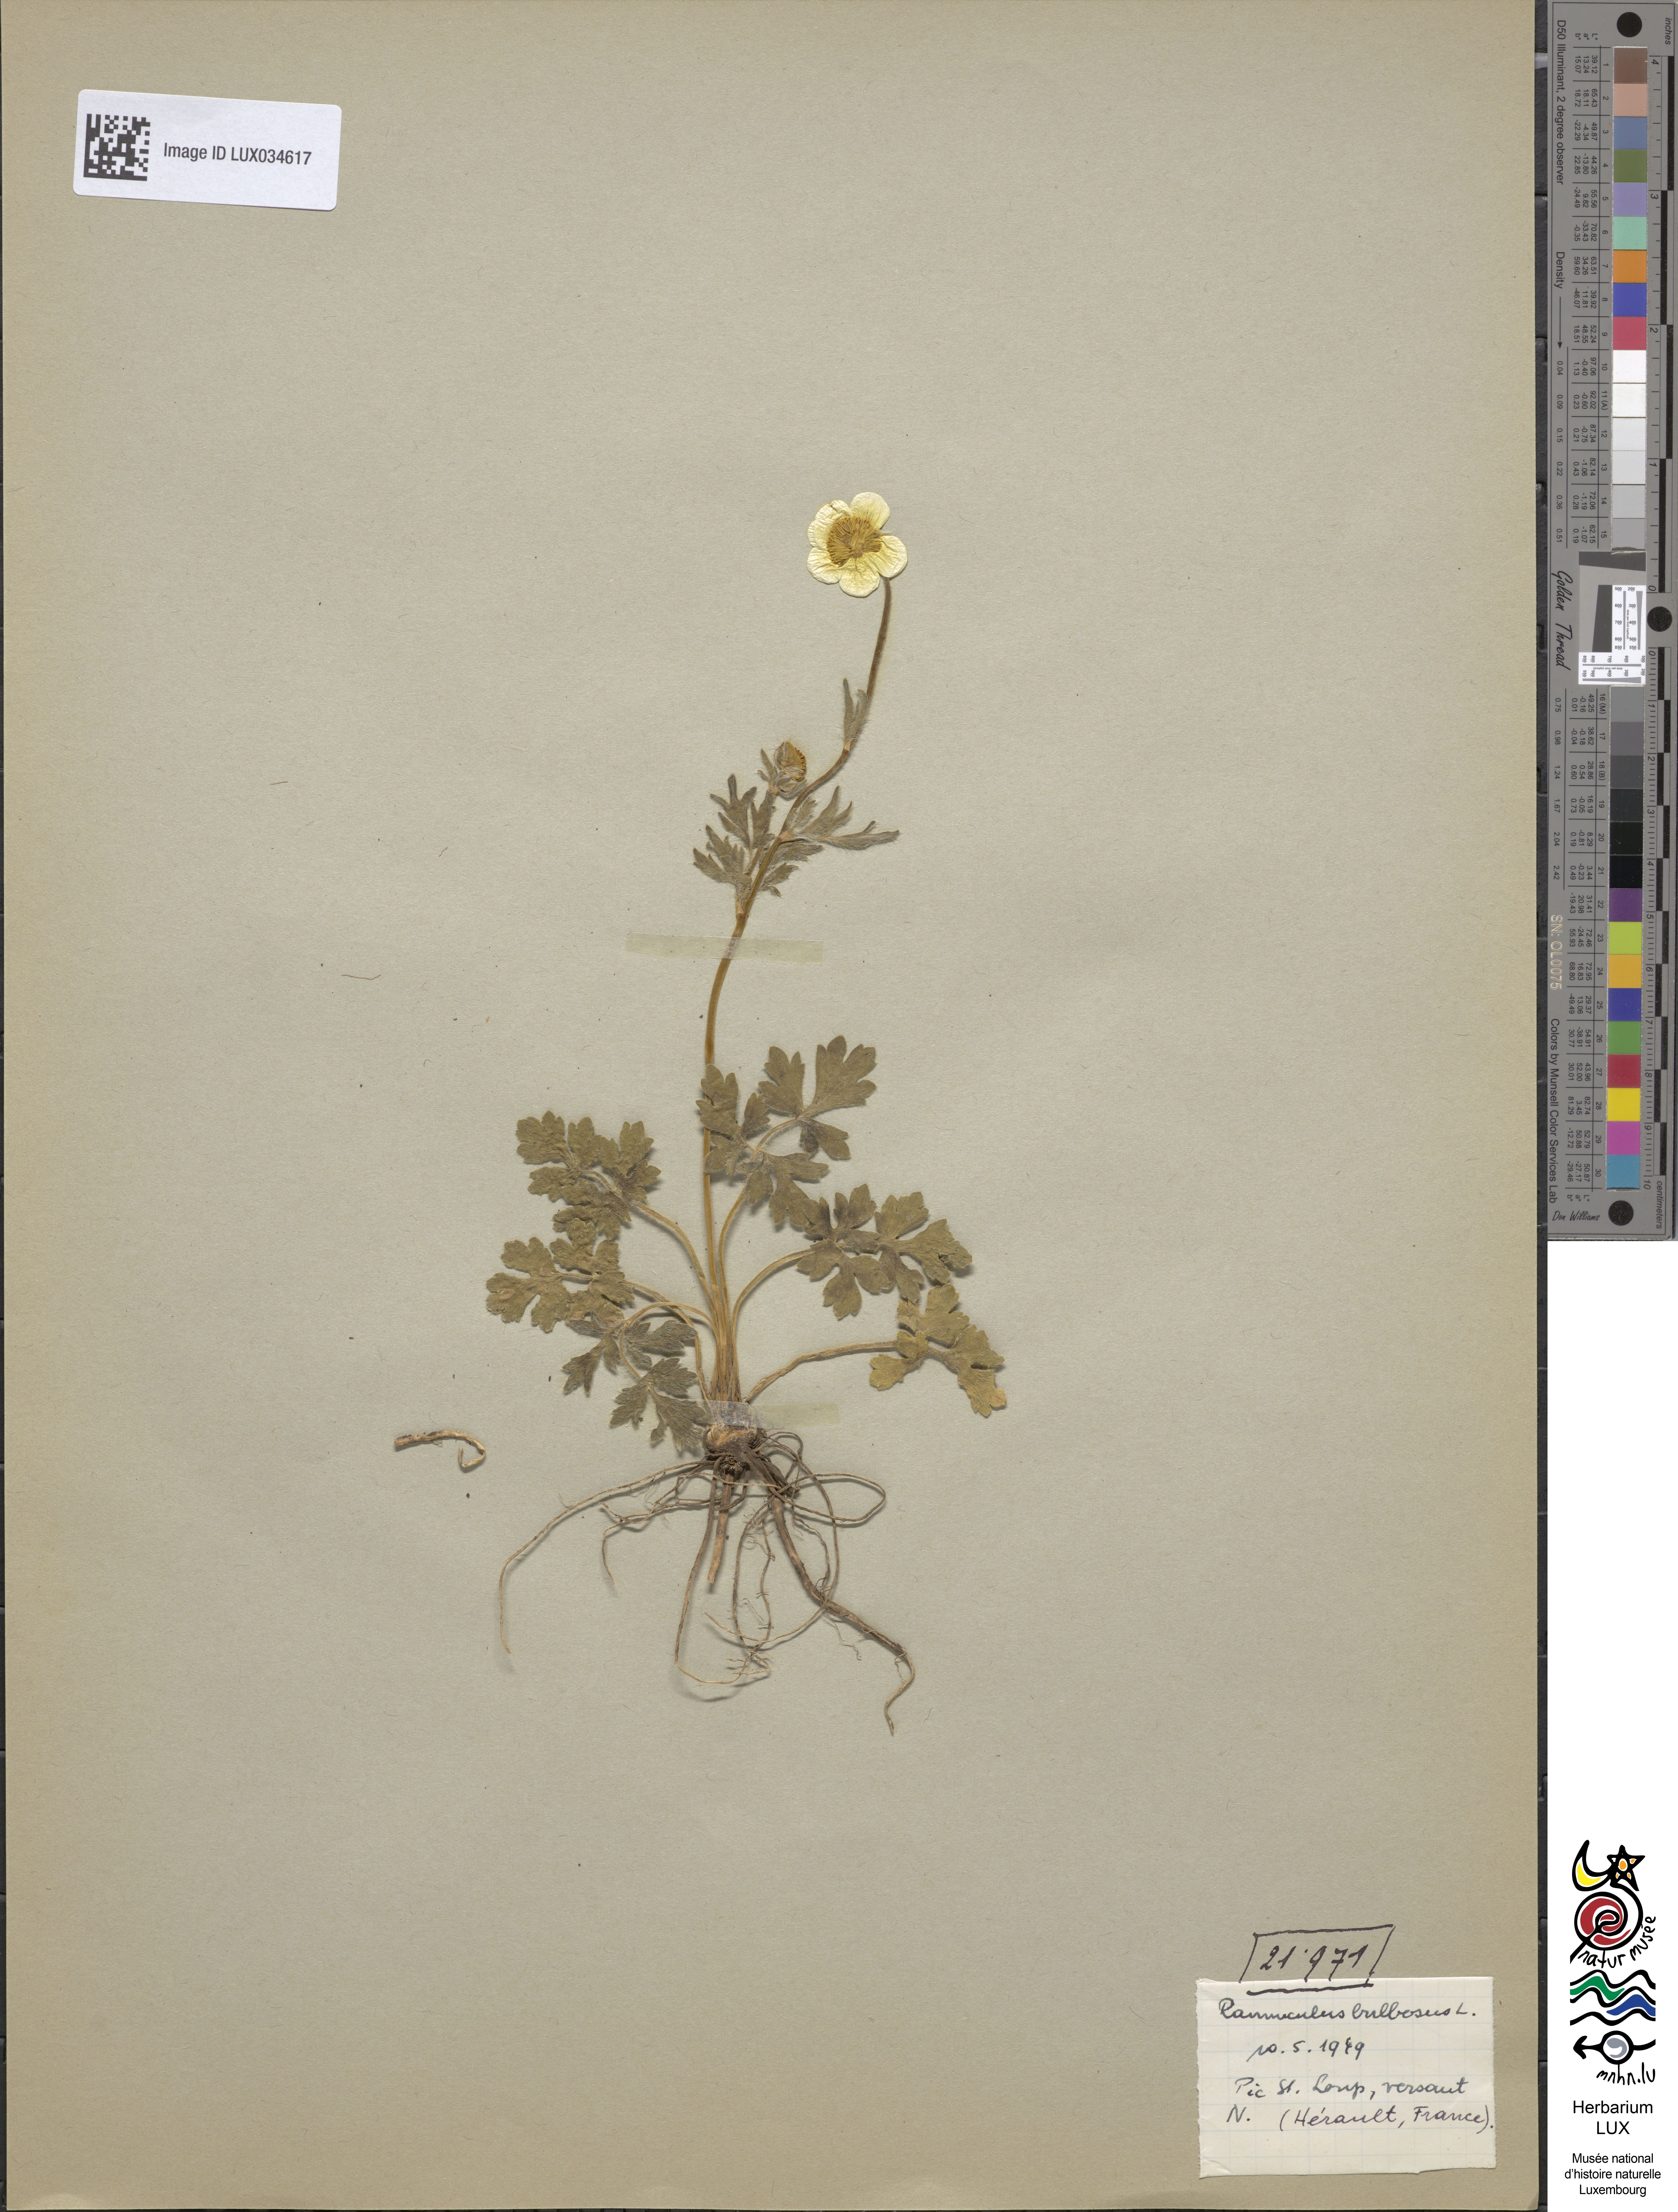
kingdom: Plantae
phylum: Tracheophyta
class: Magnoliopsida
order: Ranunculales
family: Ranunculaceae
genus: Ranunculus
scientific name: Ranunculus bulbosus
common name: Bulbous buttercup
